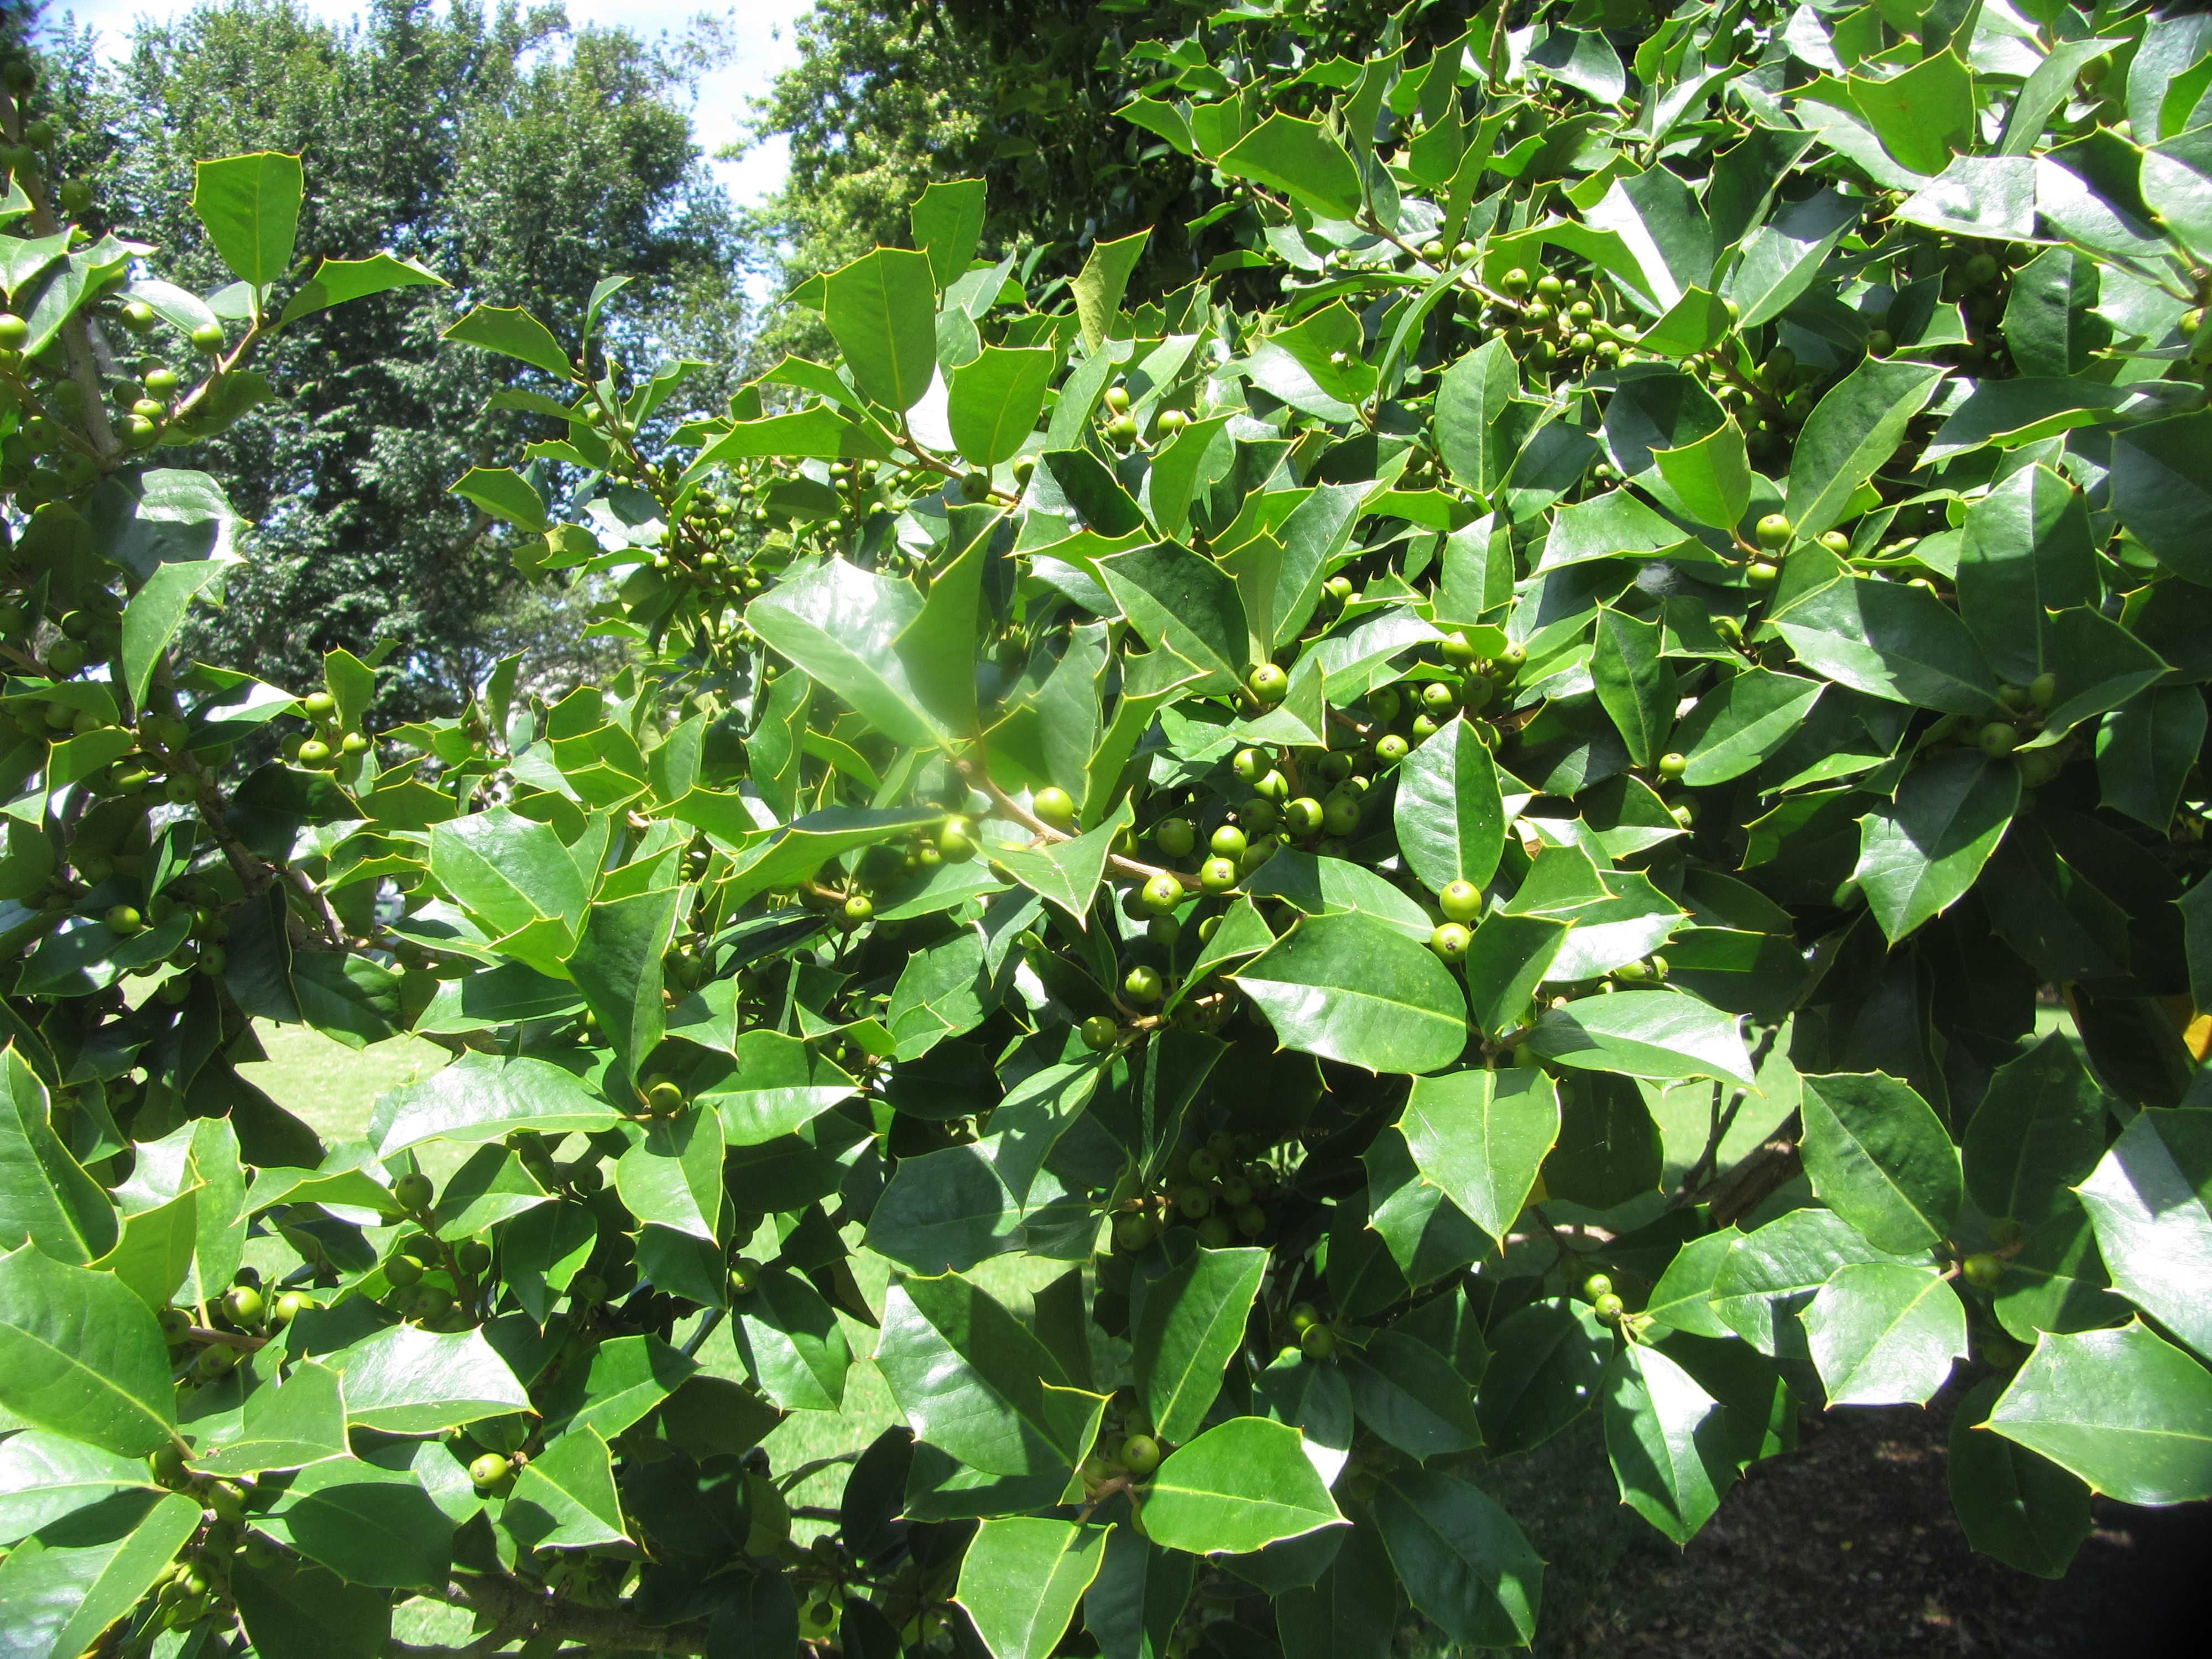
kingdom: Plantae
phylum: Tracheophyta
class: Magnoliopsida
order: Aquifoliales
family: Aquifoliaceae
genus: Ilex
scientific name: Ilex opaca
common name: American holly
